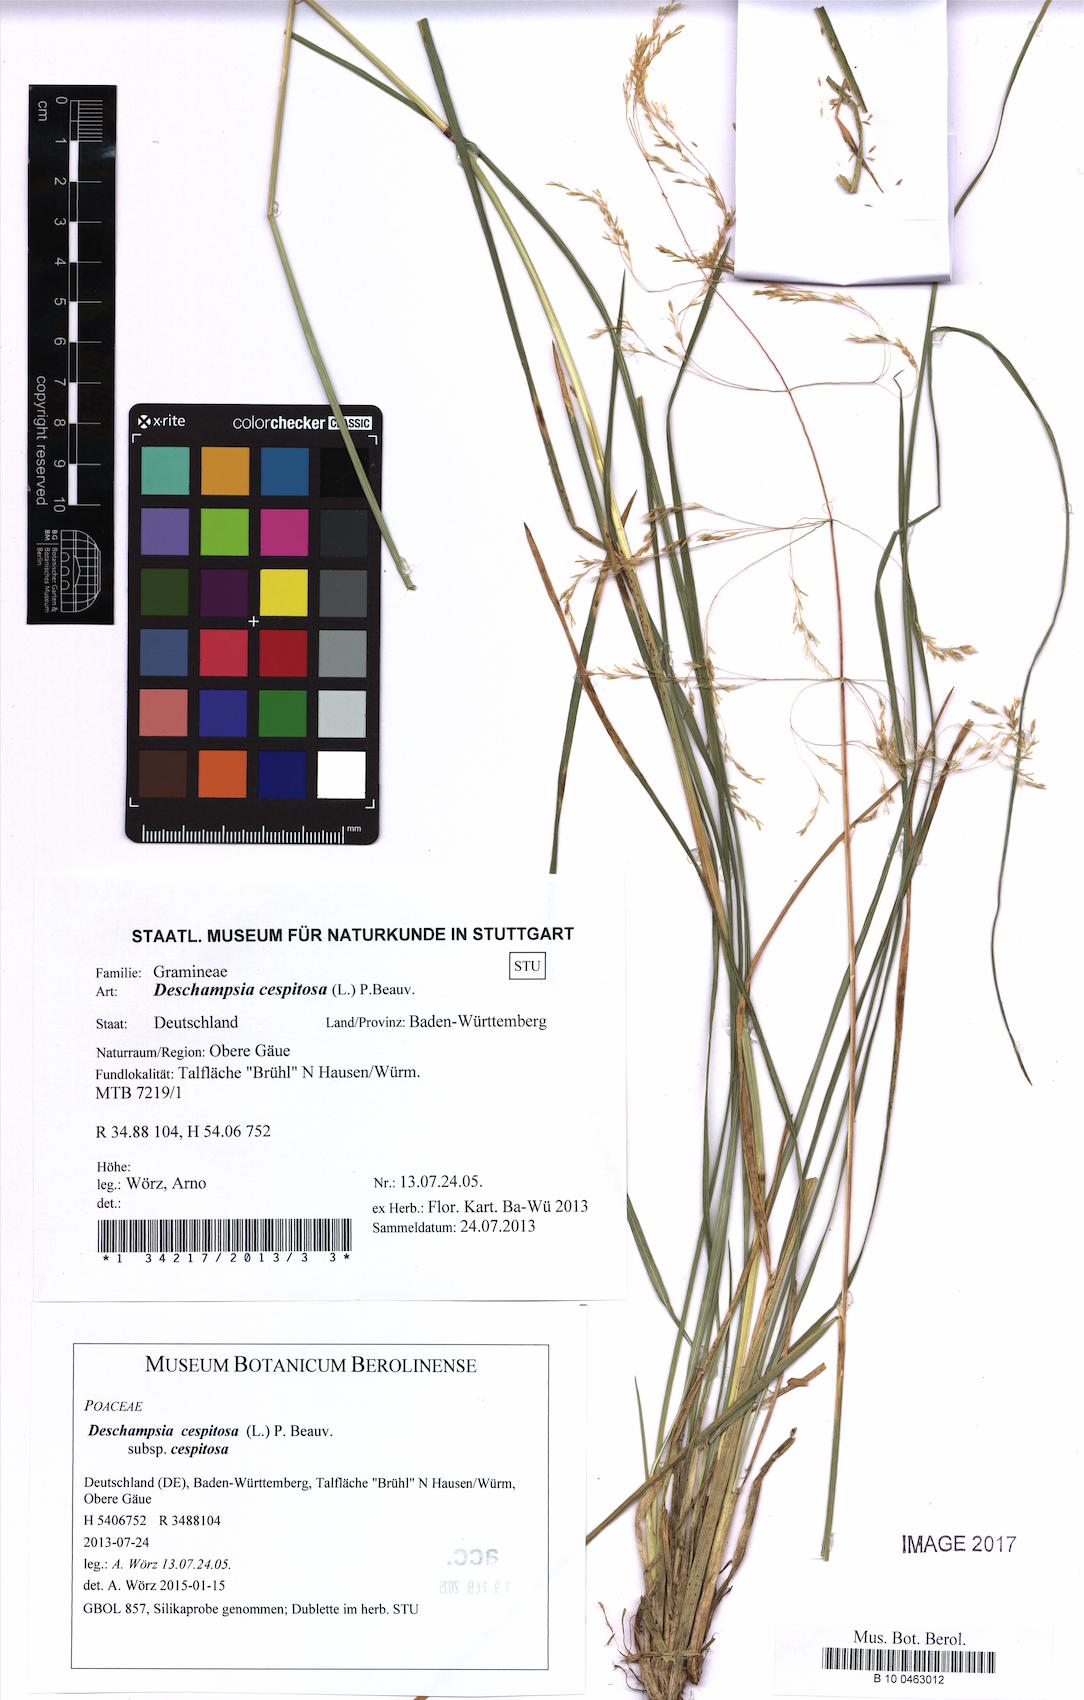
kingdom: Plantae
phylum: Tracheophyta
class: Liliopsida
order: Poales
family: Poaceae
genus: Deschampsia
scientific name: Deschampsia cespitosa
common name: Tufted hair-grass
